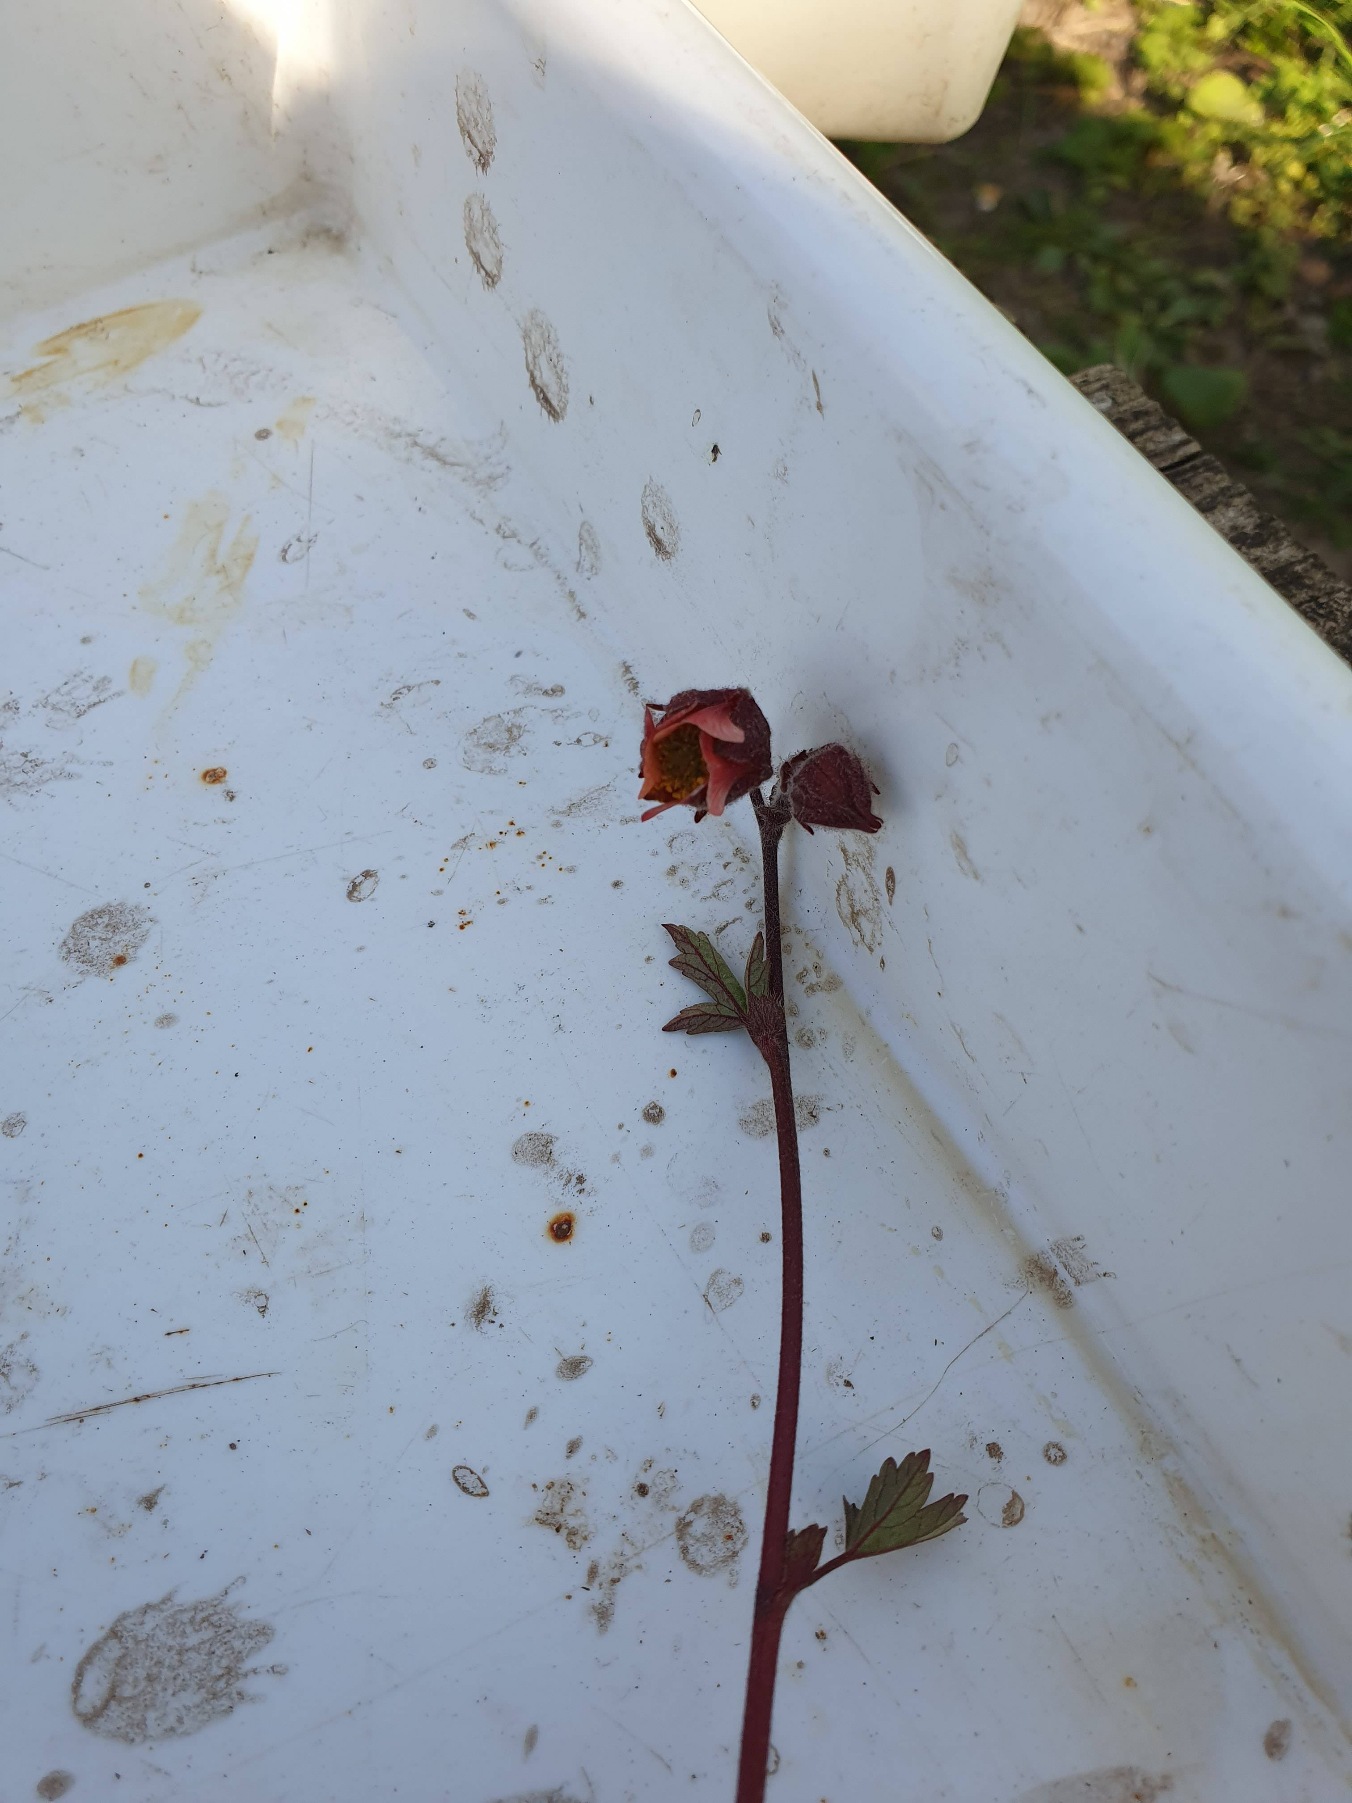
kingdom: Plantae
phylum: Tracheophyta
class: Magnoliopsida
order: Rosales
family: Rosaceae
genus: Geum
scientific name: Geum rivale
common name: Eng-nellikerod
